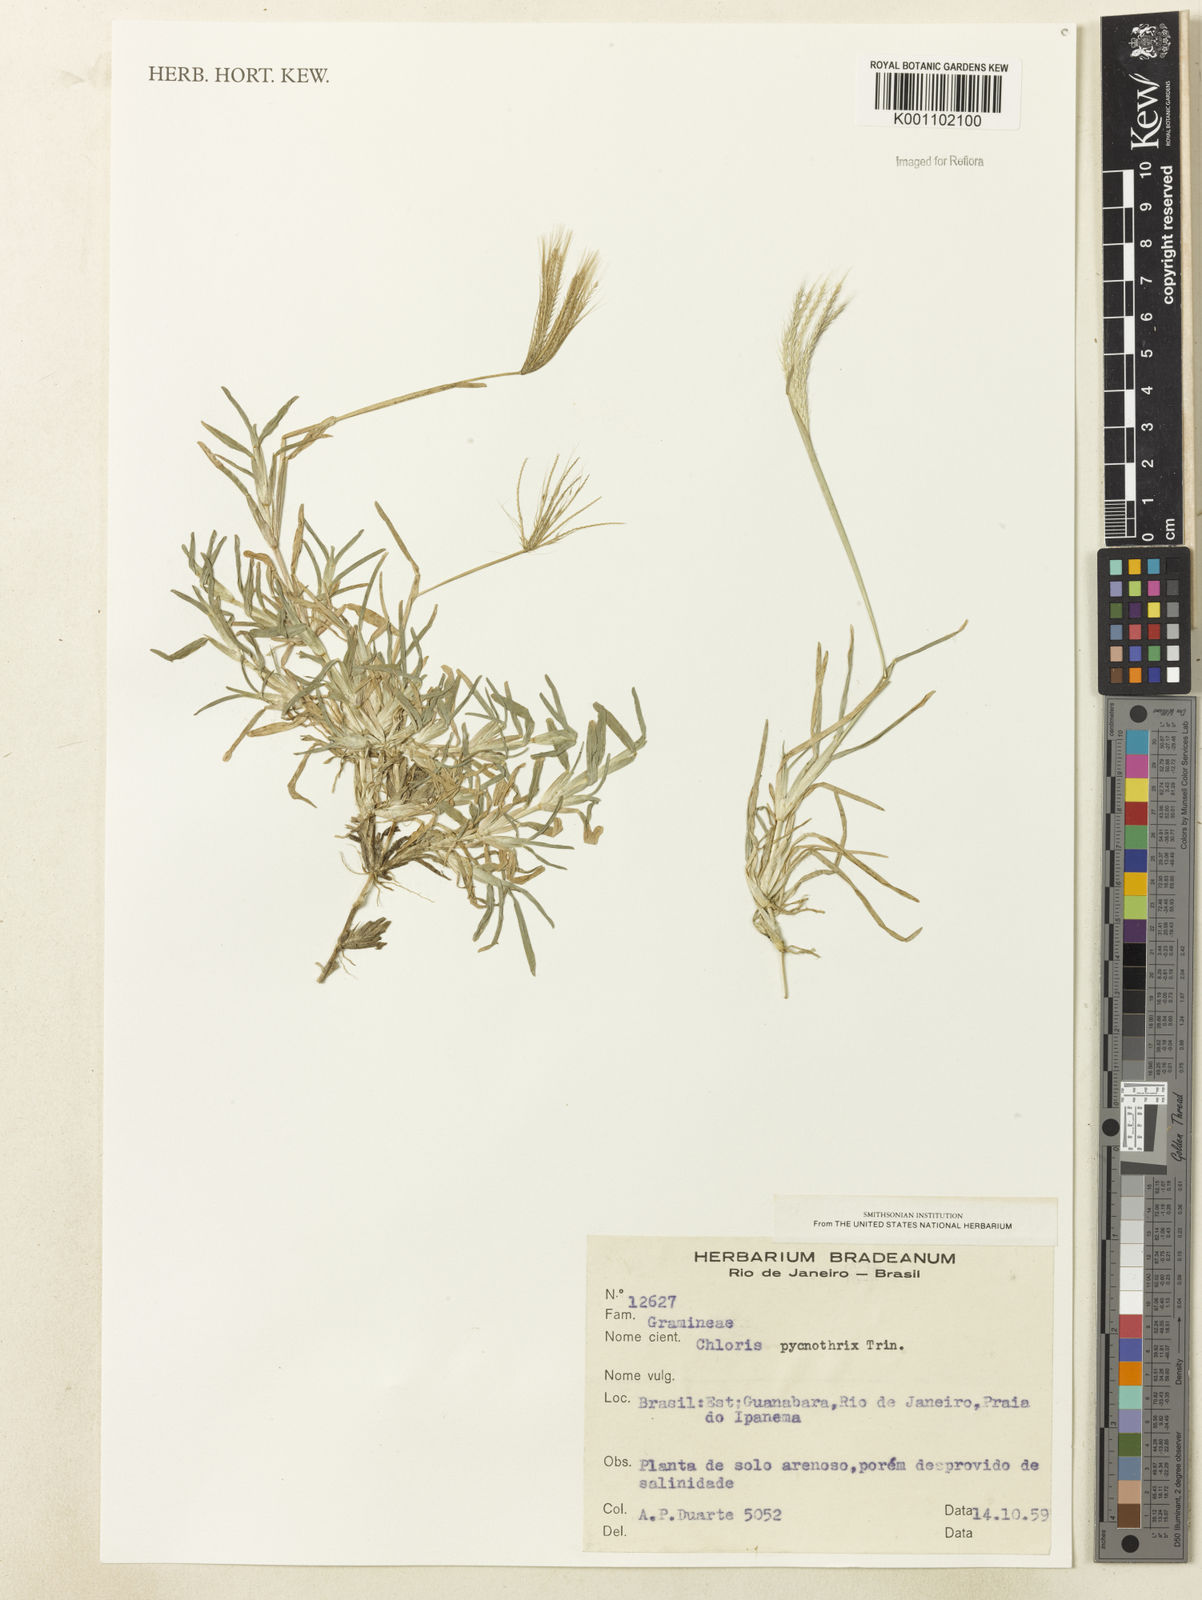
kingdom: Plantae
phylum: Tracheophyta
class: Liliopsida
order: Poales
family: Poaceae
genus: Chloris
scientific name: Chloris pycnothrix
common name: Spiderweb chloris
